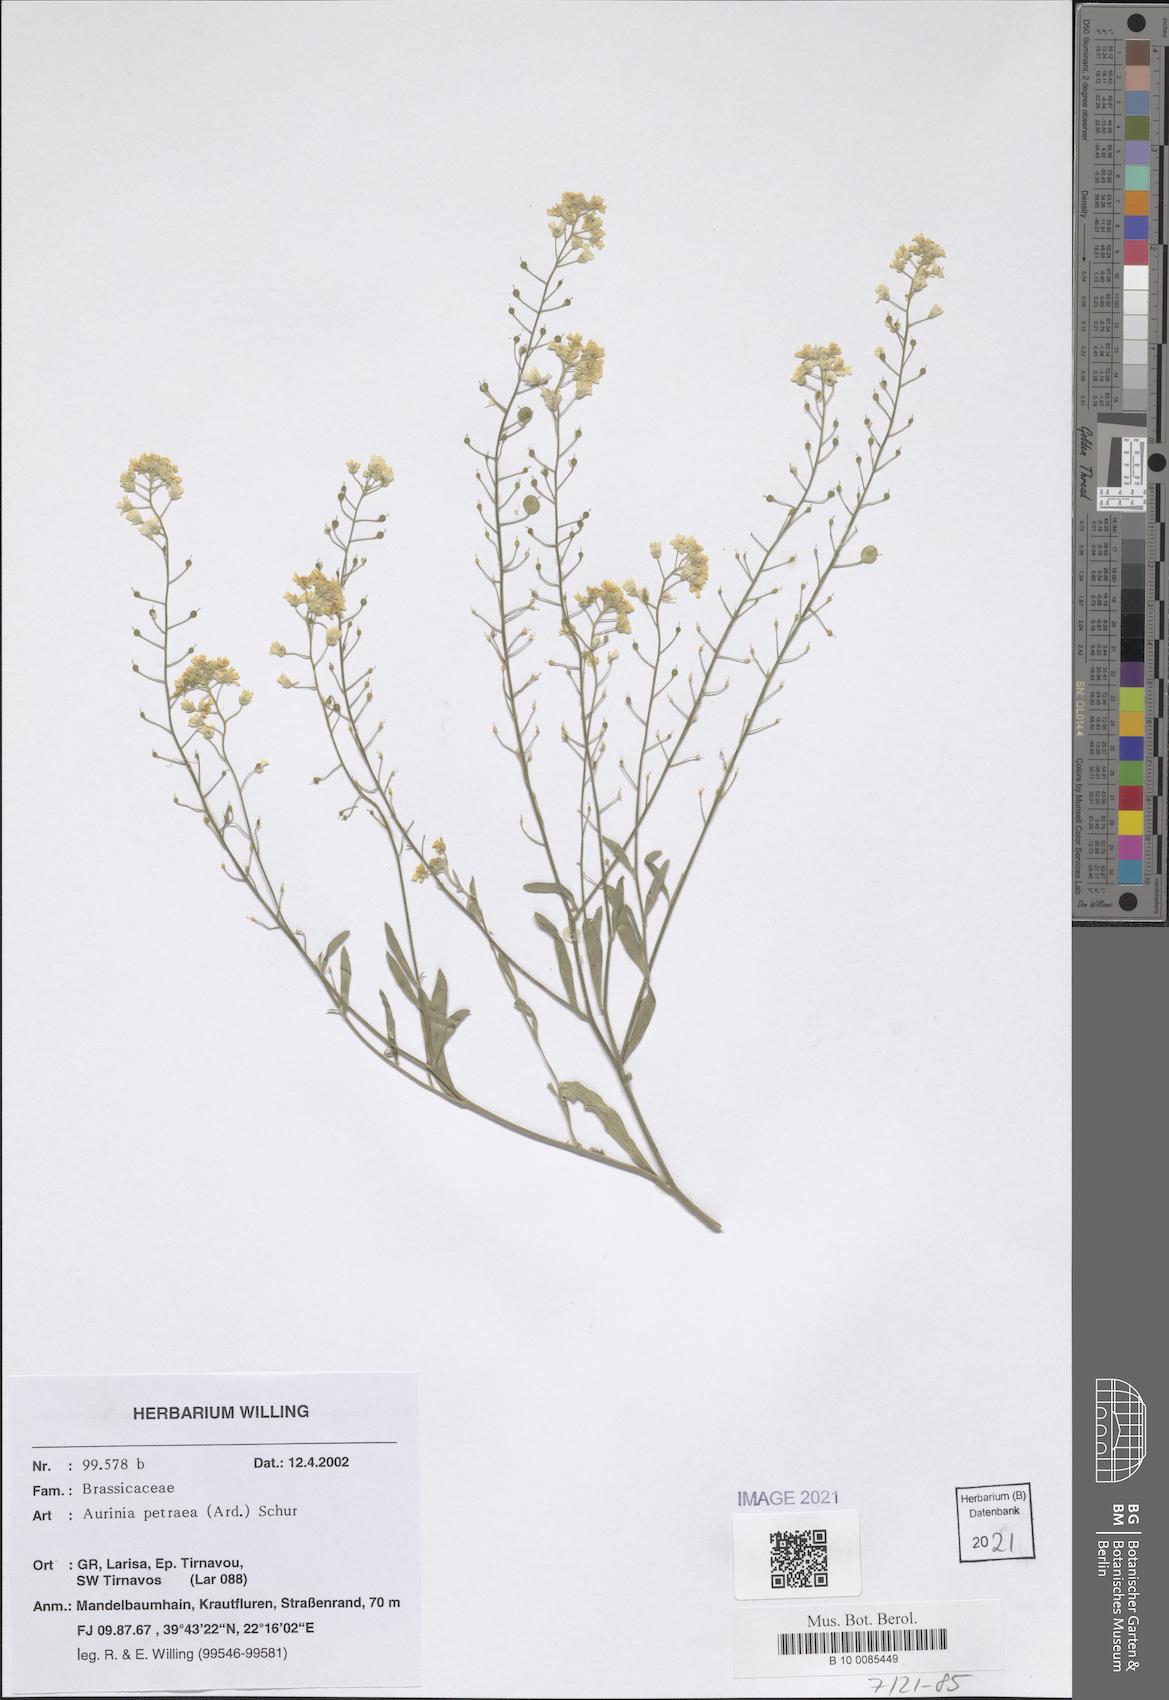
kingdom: Plantae
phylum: Tracheophyta
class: Magnoliopsida
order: Brassicales
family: Brassicaceae
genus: Aurinia
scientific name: Aurinia petraea
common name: Goldentuft
